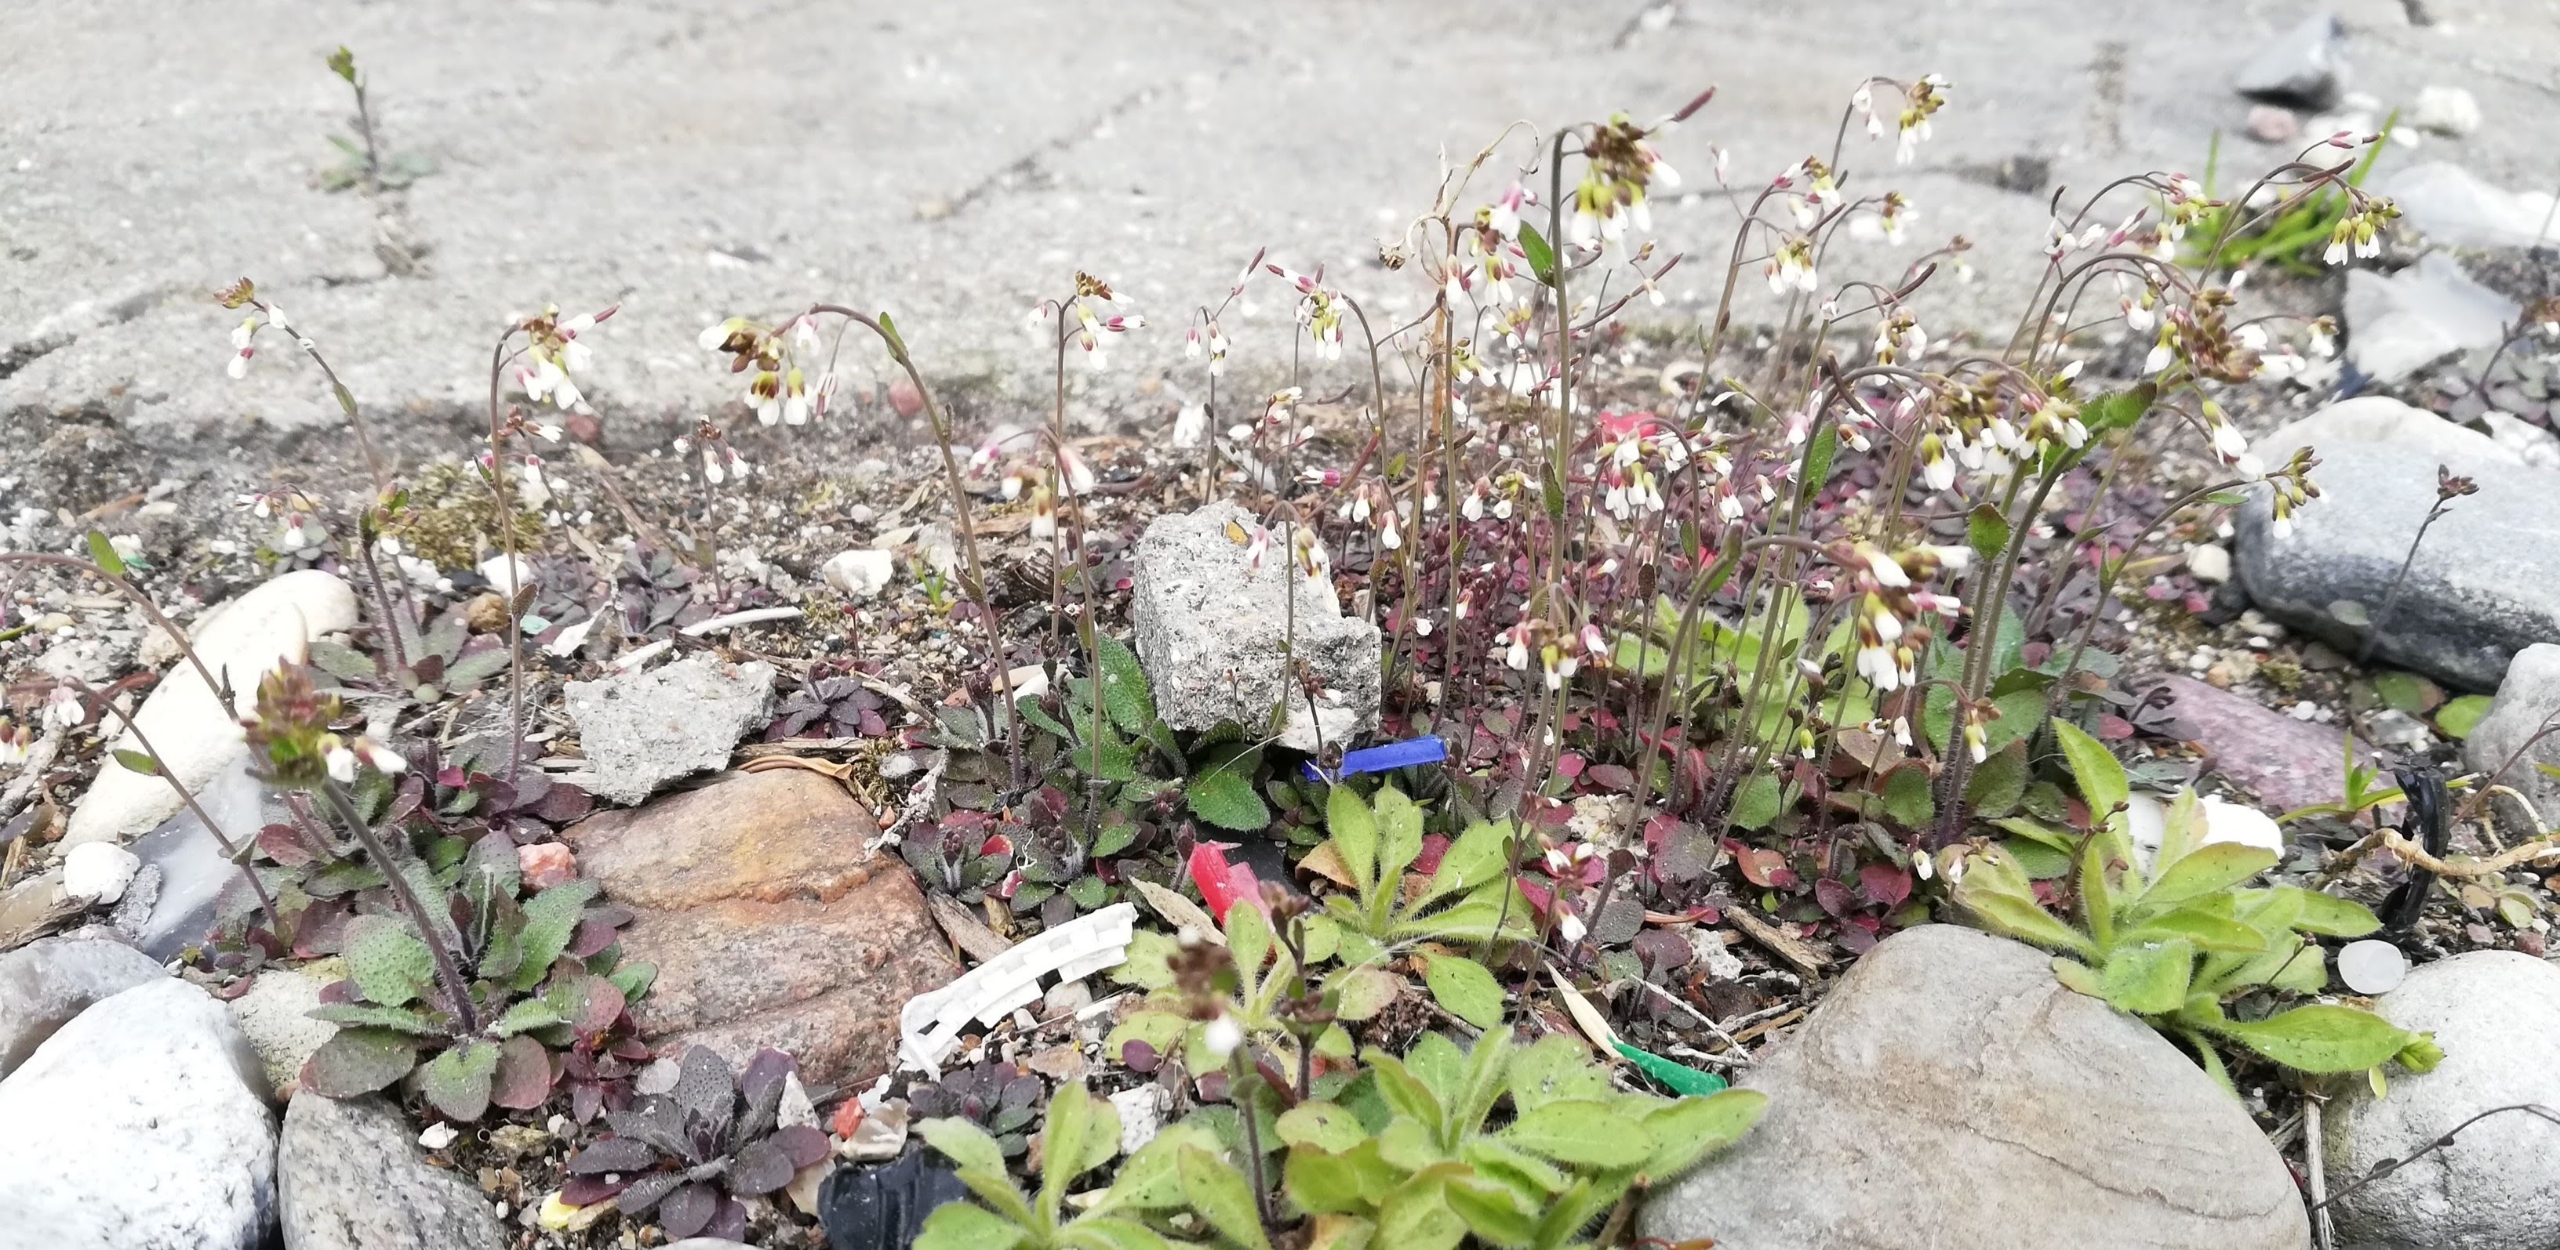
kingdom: Plantae
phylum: Tracheophyta
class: Magnoliopsida
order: Brassicales
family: Brassicaceae
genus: Arabidopsis
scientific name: Arabidopsis thaliana
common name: Almindelig gåsemad
